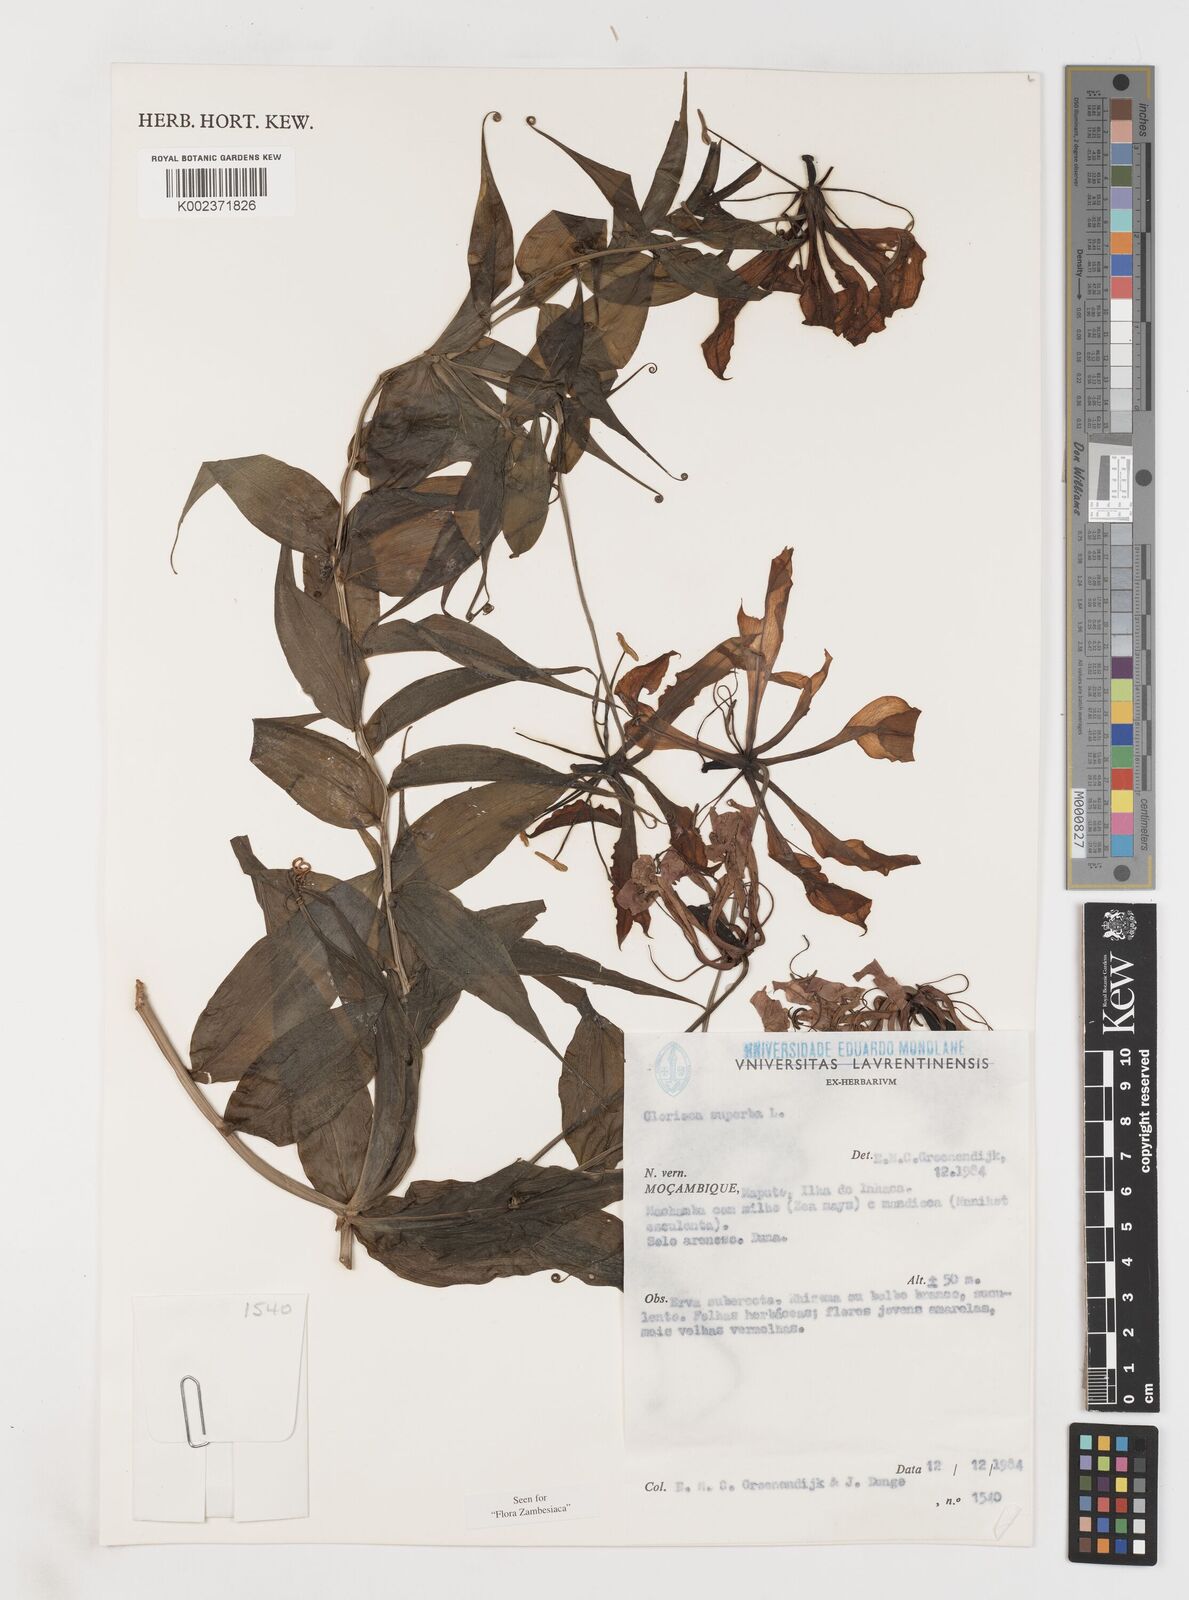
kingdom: Plantae
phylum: Tracheophyta
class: Liliopsida
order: Liliales
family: Colchicaceae
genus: Gloriosa
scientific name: Gloriosa simplex
